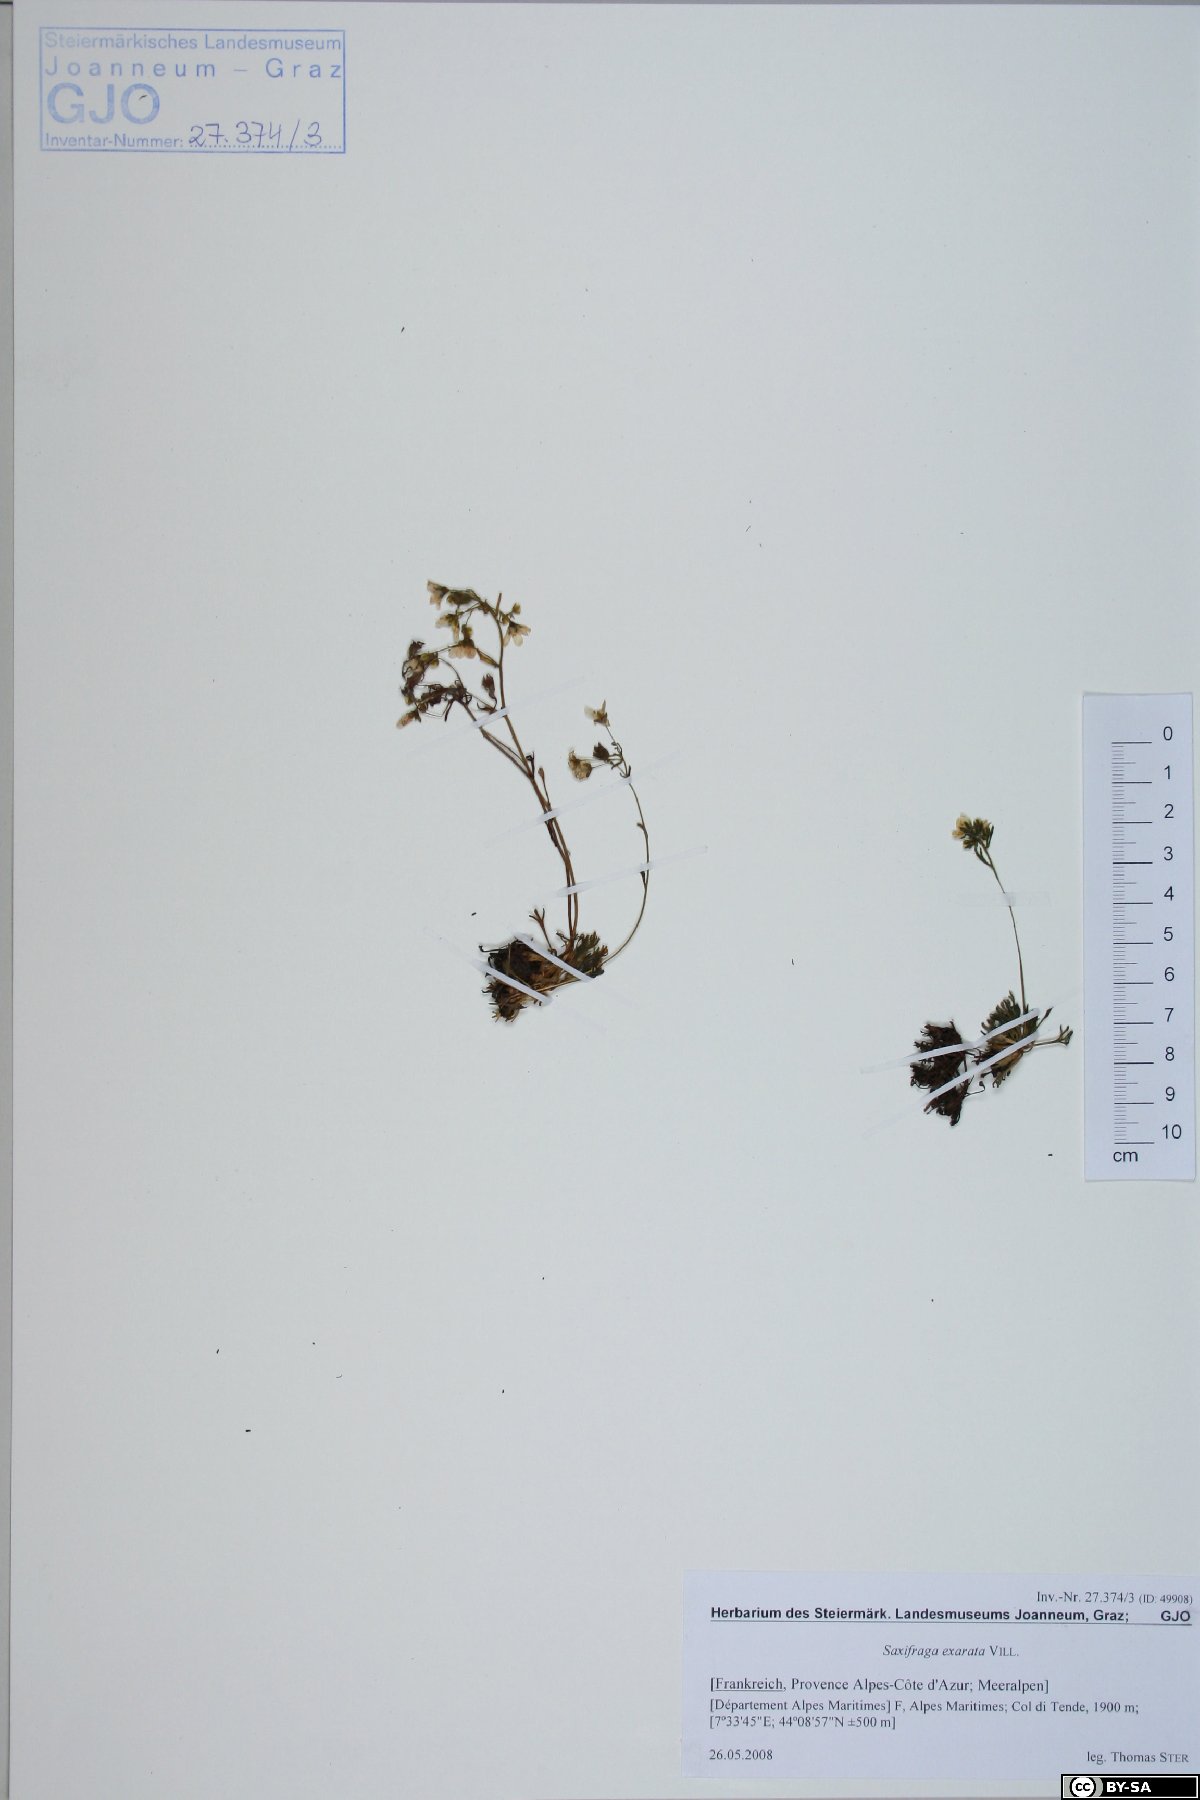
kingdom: Plantae
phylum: Tracheophyta
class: Magnoliopsida
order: Saxifragales
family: Saxifragaceae
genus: Saxifraga
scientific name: Saxifraga exarata
